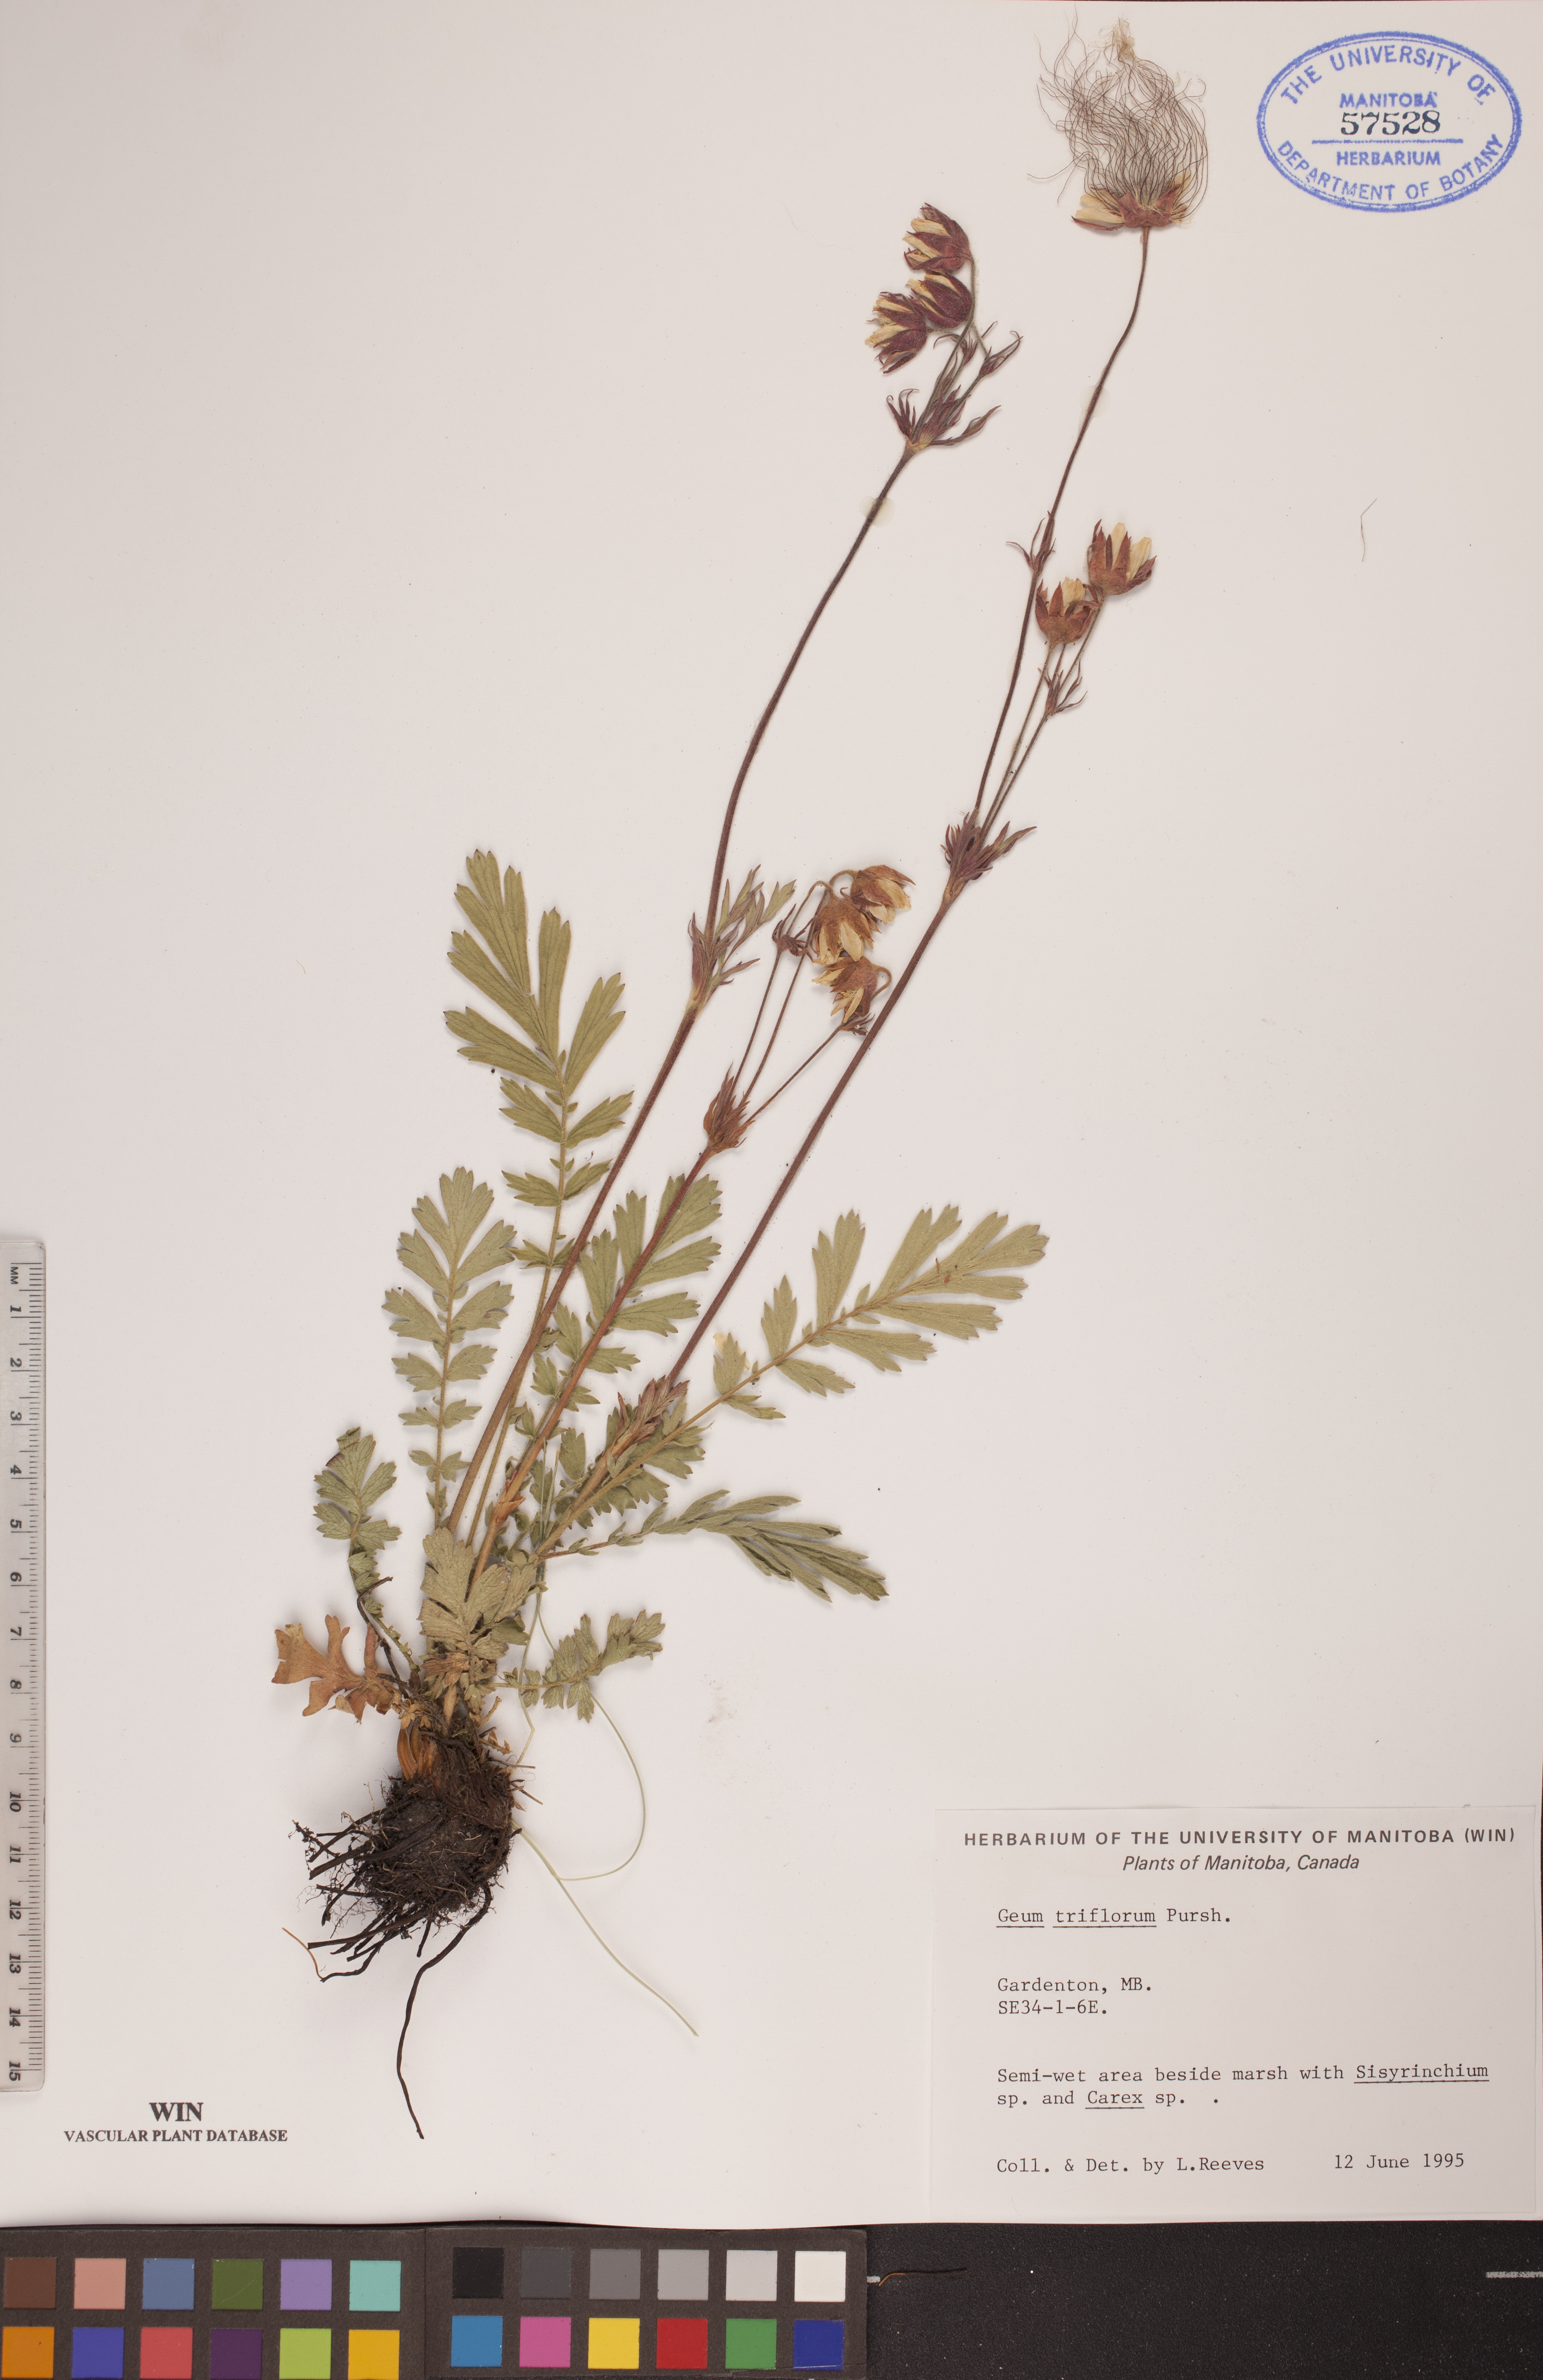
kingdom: Plantae
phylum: Tracheophyta
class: Magnoliopsida
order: Rosales
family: Rosaceae
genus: Geum
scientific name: Geum triflorum
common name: Old man's whiskers
